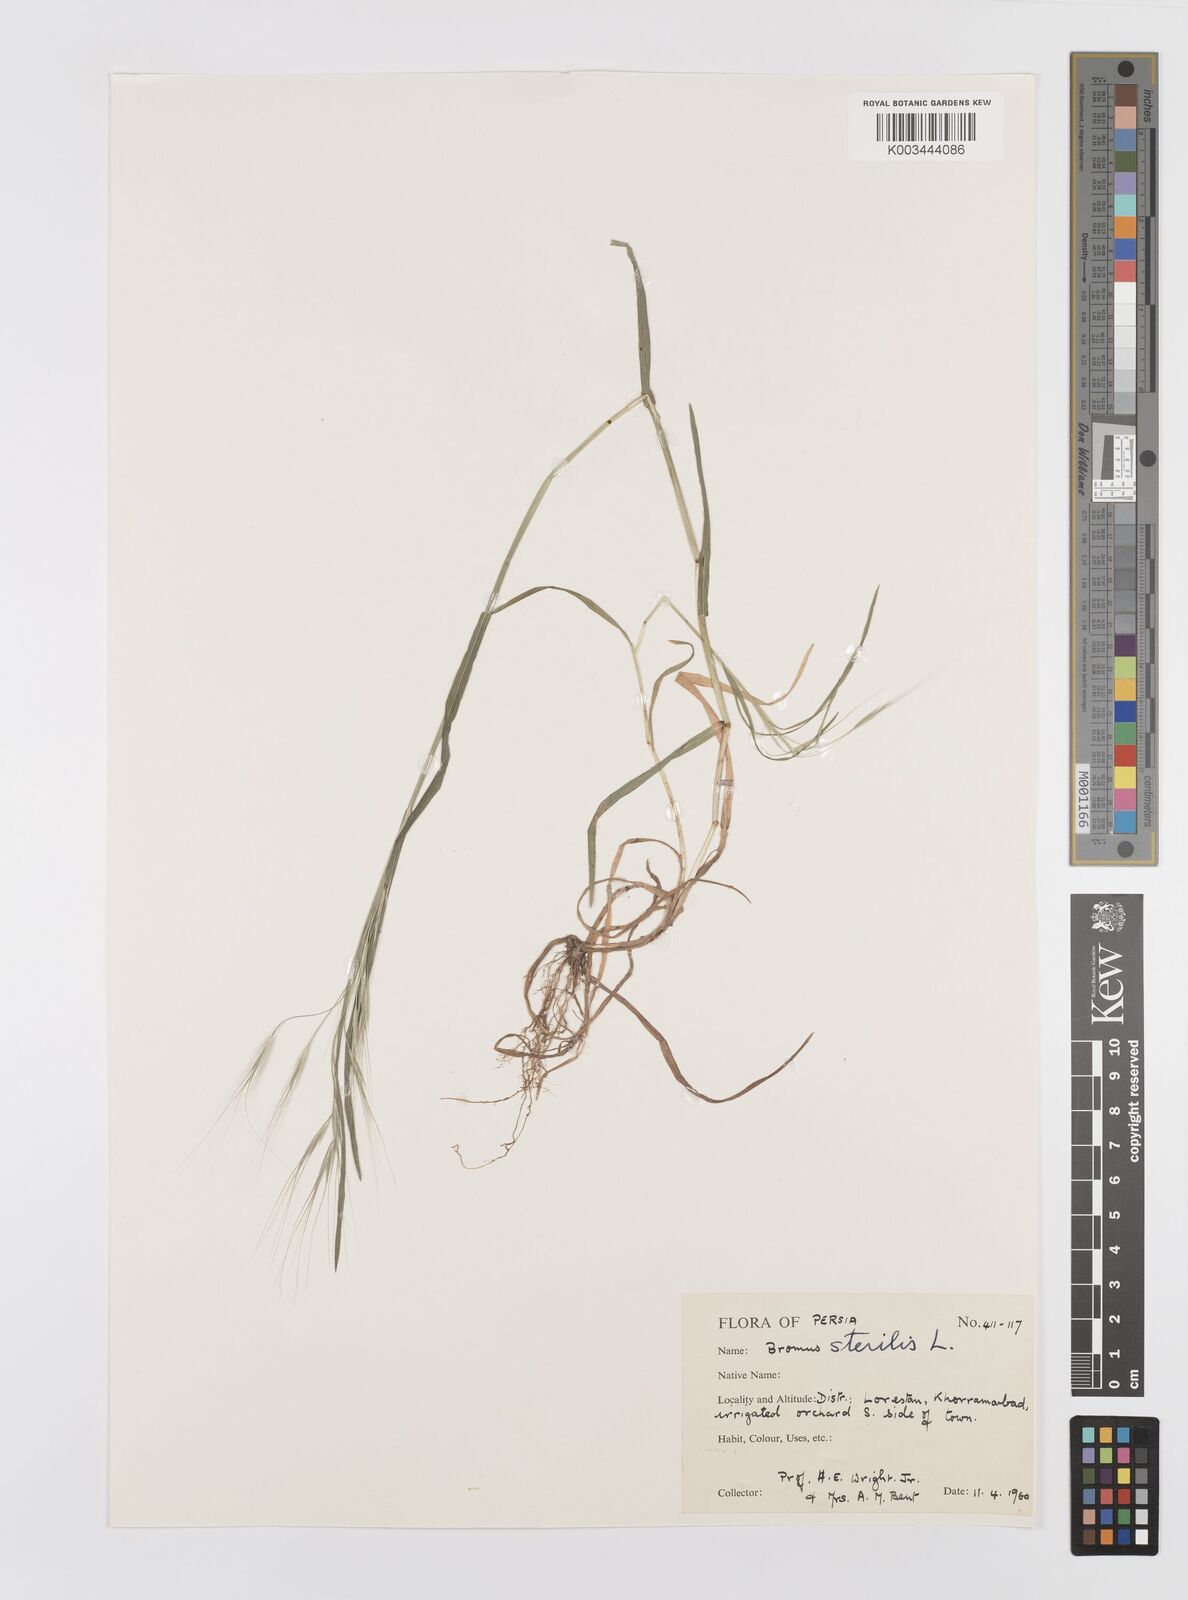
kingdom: Plantae
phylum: Tracheophyta
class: Liliopsida
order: Poales
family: Poaceae
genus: Bromus
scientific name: Bromus sterilis
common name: Poverty brome
